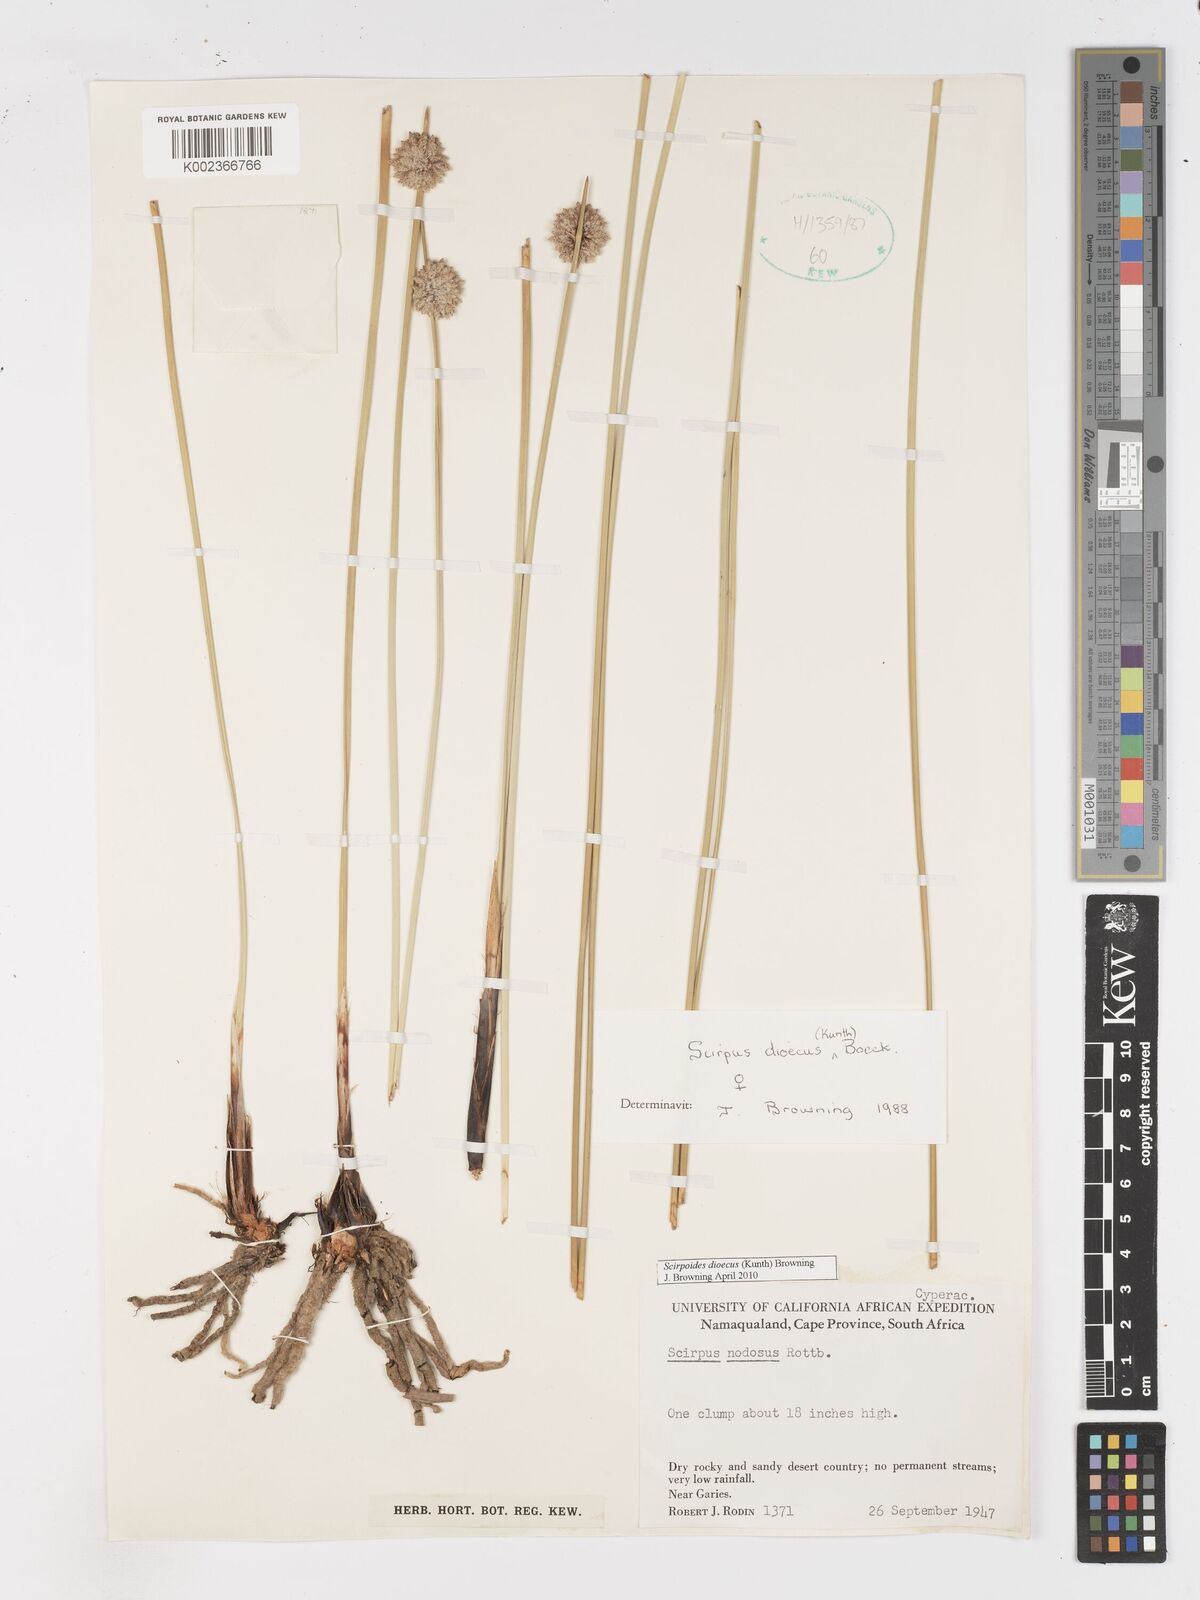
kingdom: Plantae
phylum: Tracheophyta
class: Liliopsida
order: Poales
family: Cyperaceae
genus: Afroscirpoides
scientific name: Afroscirpoides dioeca
